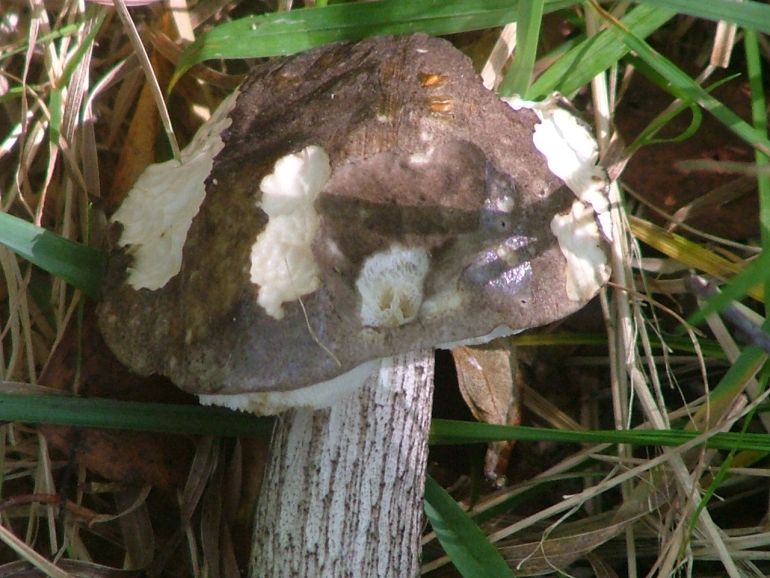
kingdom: Fungi
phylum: Basidiomycota
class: Agaricomycetes
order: Boletales
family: Boletaceae
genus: Leccinum
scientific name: Leccinum scabrum
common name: brun skælrørhat
